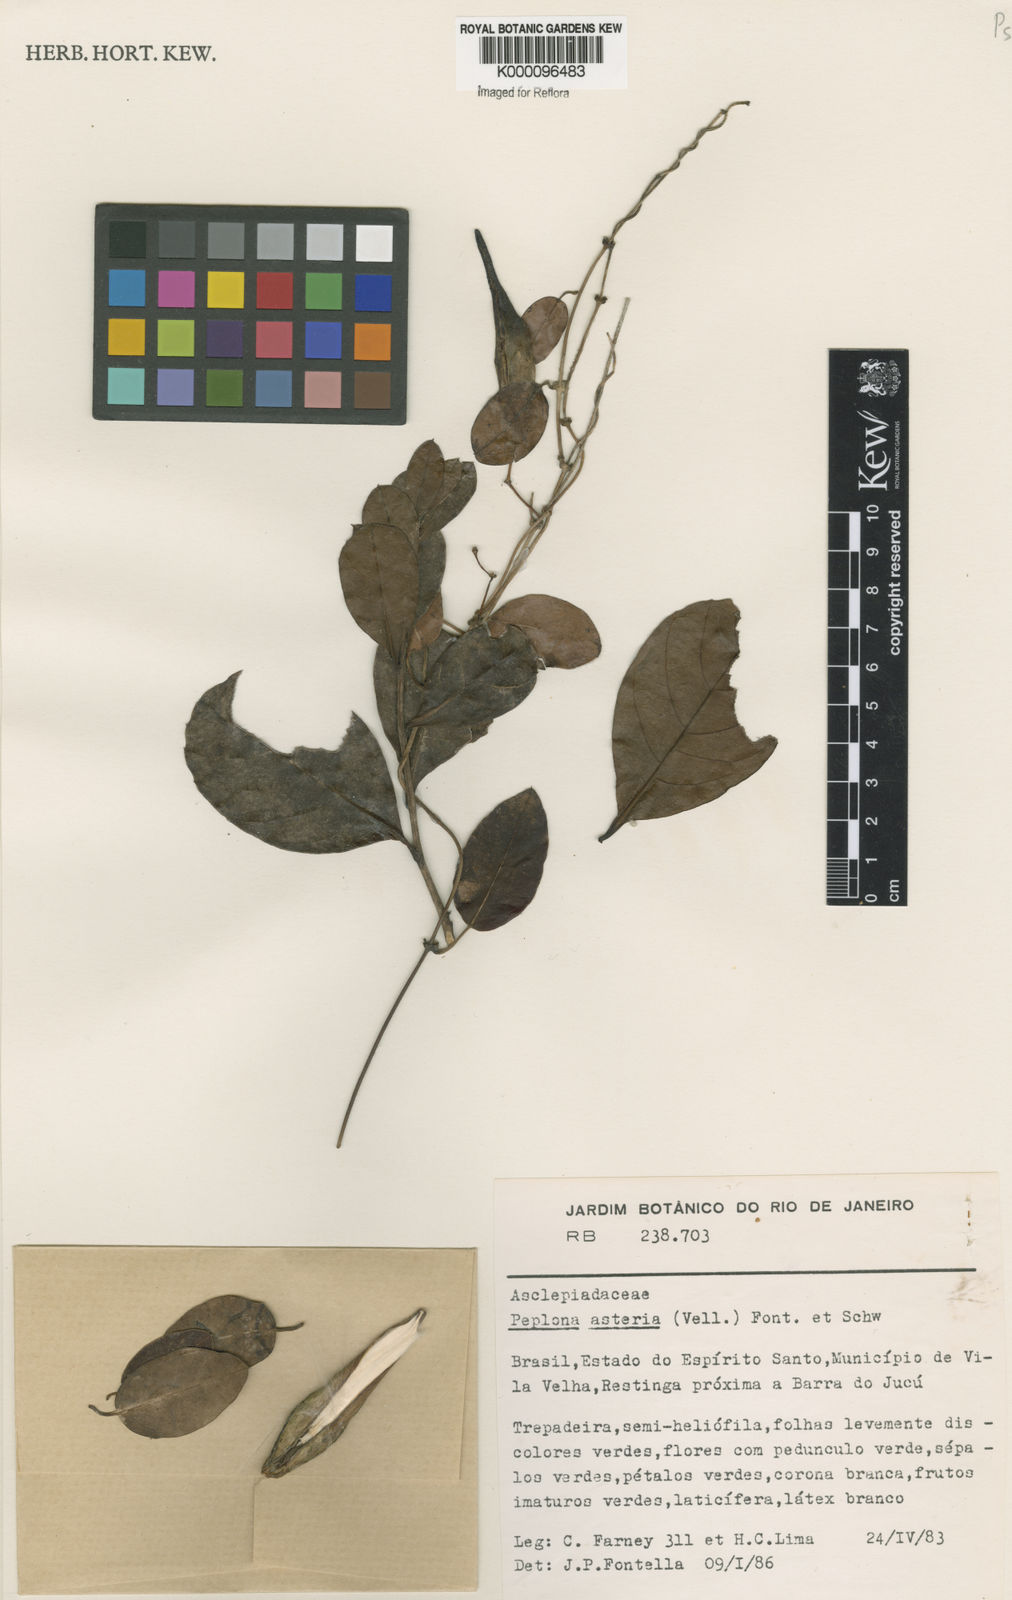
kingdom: Plantae
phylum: Tracheophyta
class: Magnoliopsida
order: Gentianales
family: Apocynaceae
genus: Peplonia
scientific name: Peplonia asteria
